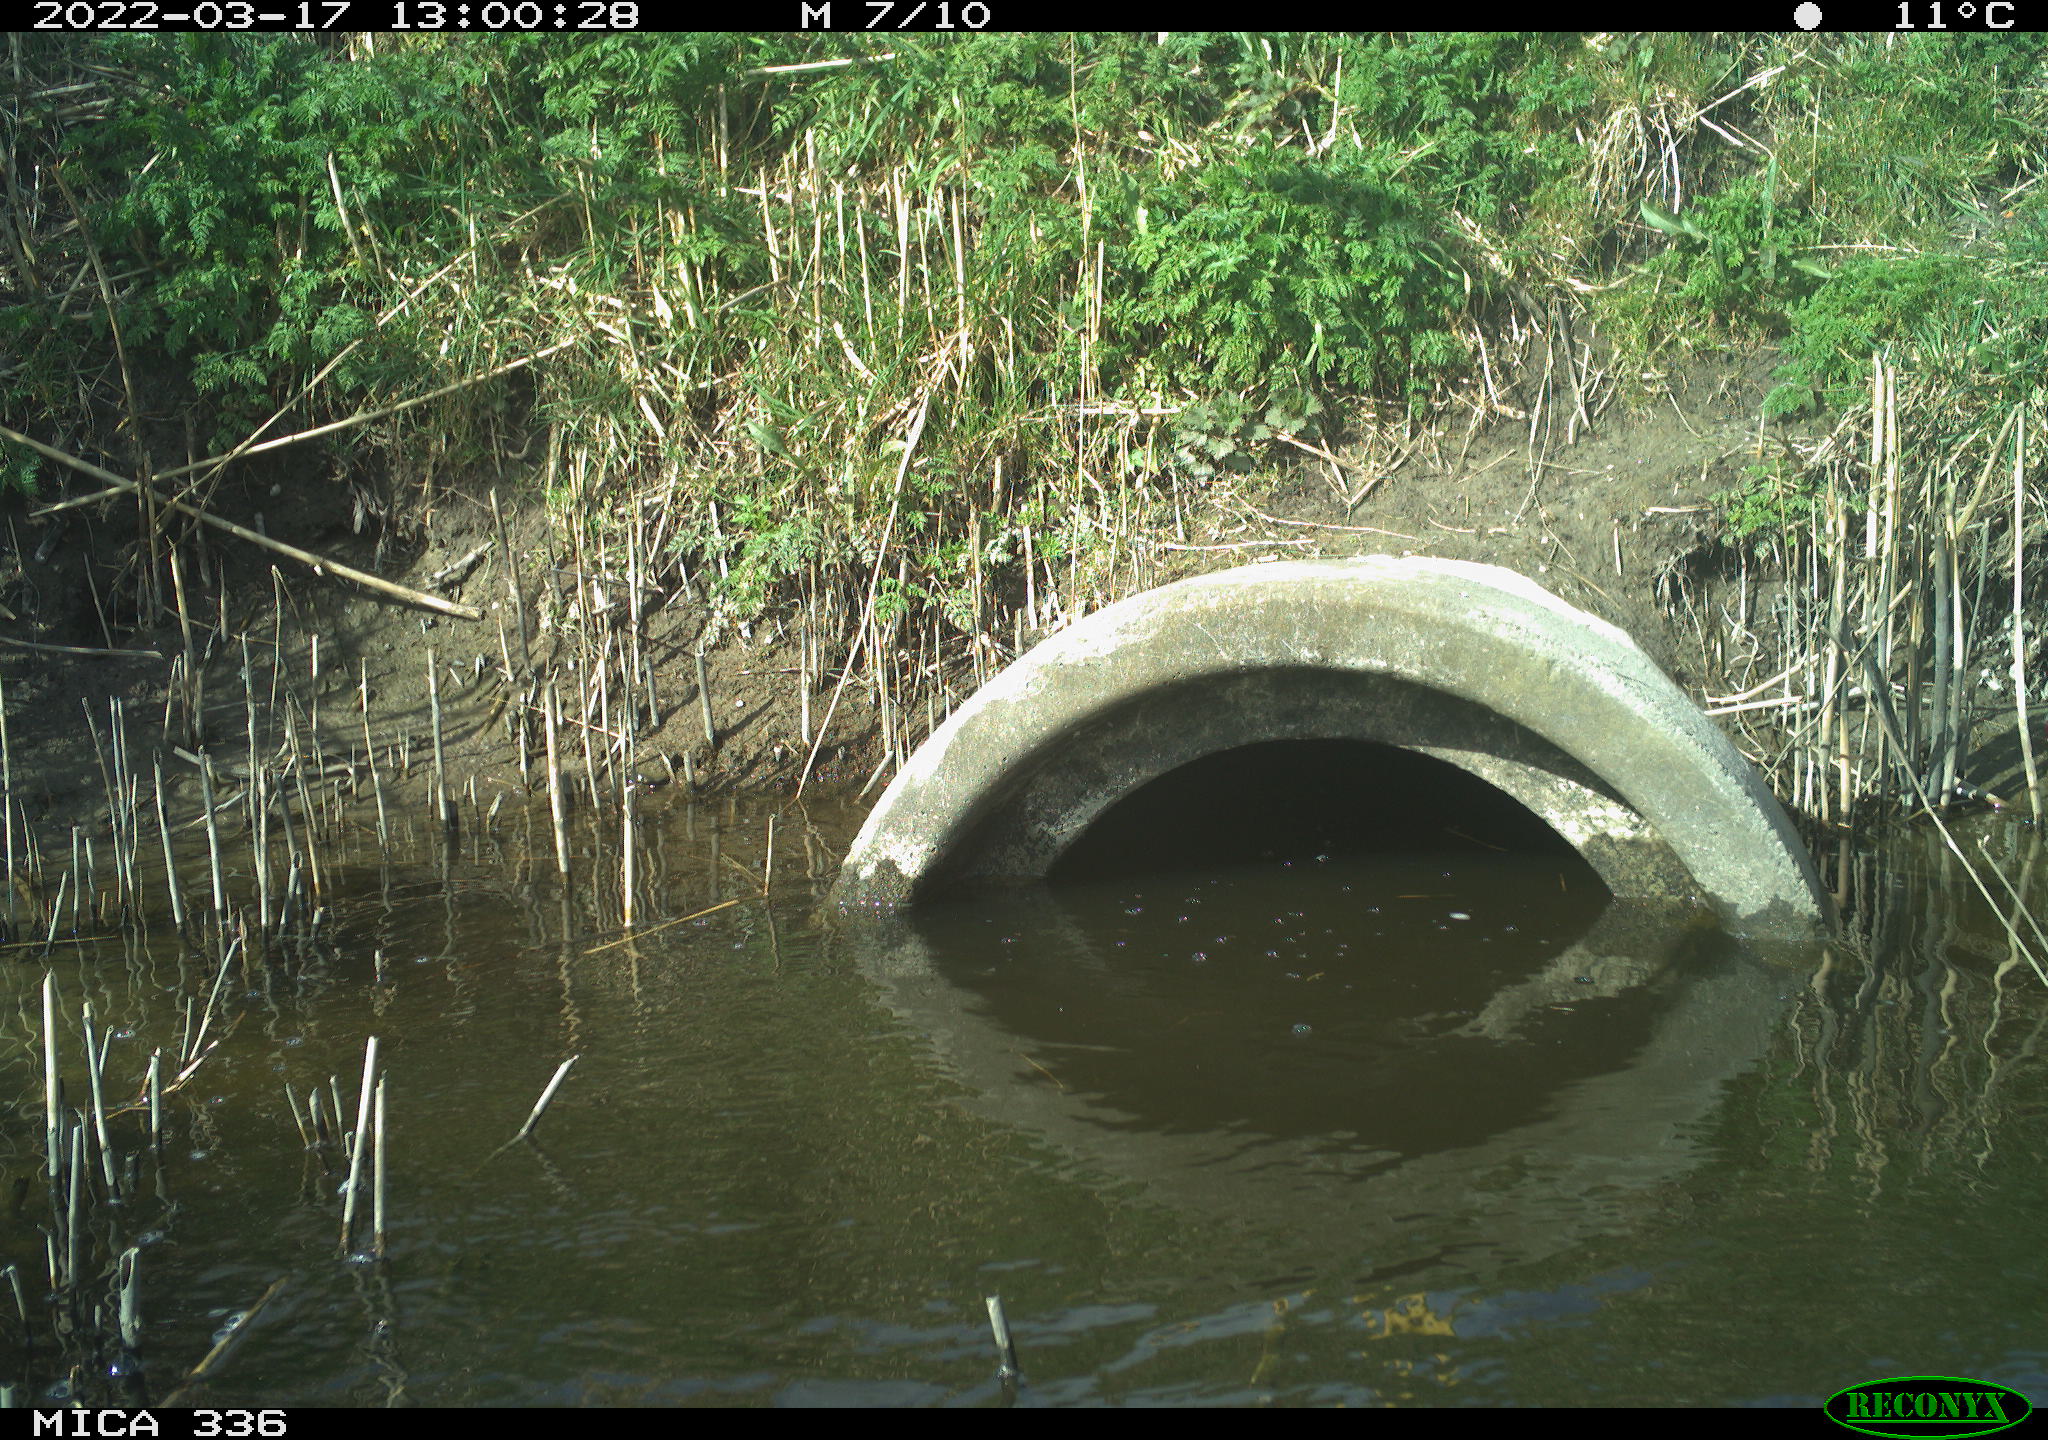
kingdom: Animalia
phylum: Chordata
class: Aves
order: Suliformes
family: Phalacrocoracidae
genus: Phalacrocorax
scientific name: Phalacrocorax carbo
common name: Great cormorant
